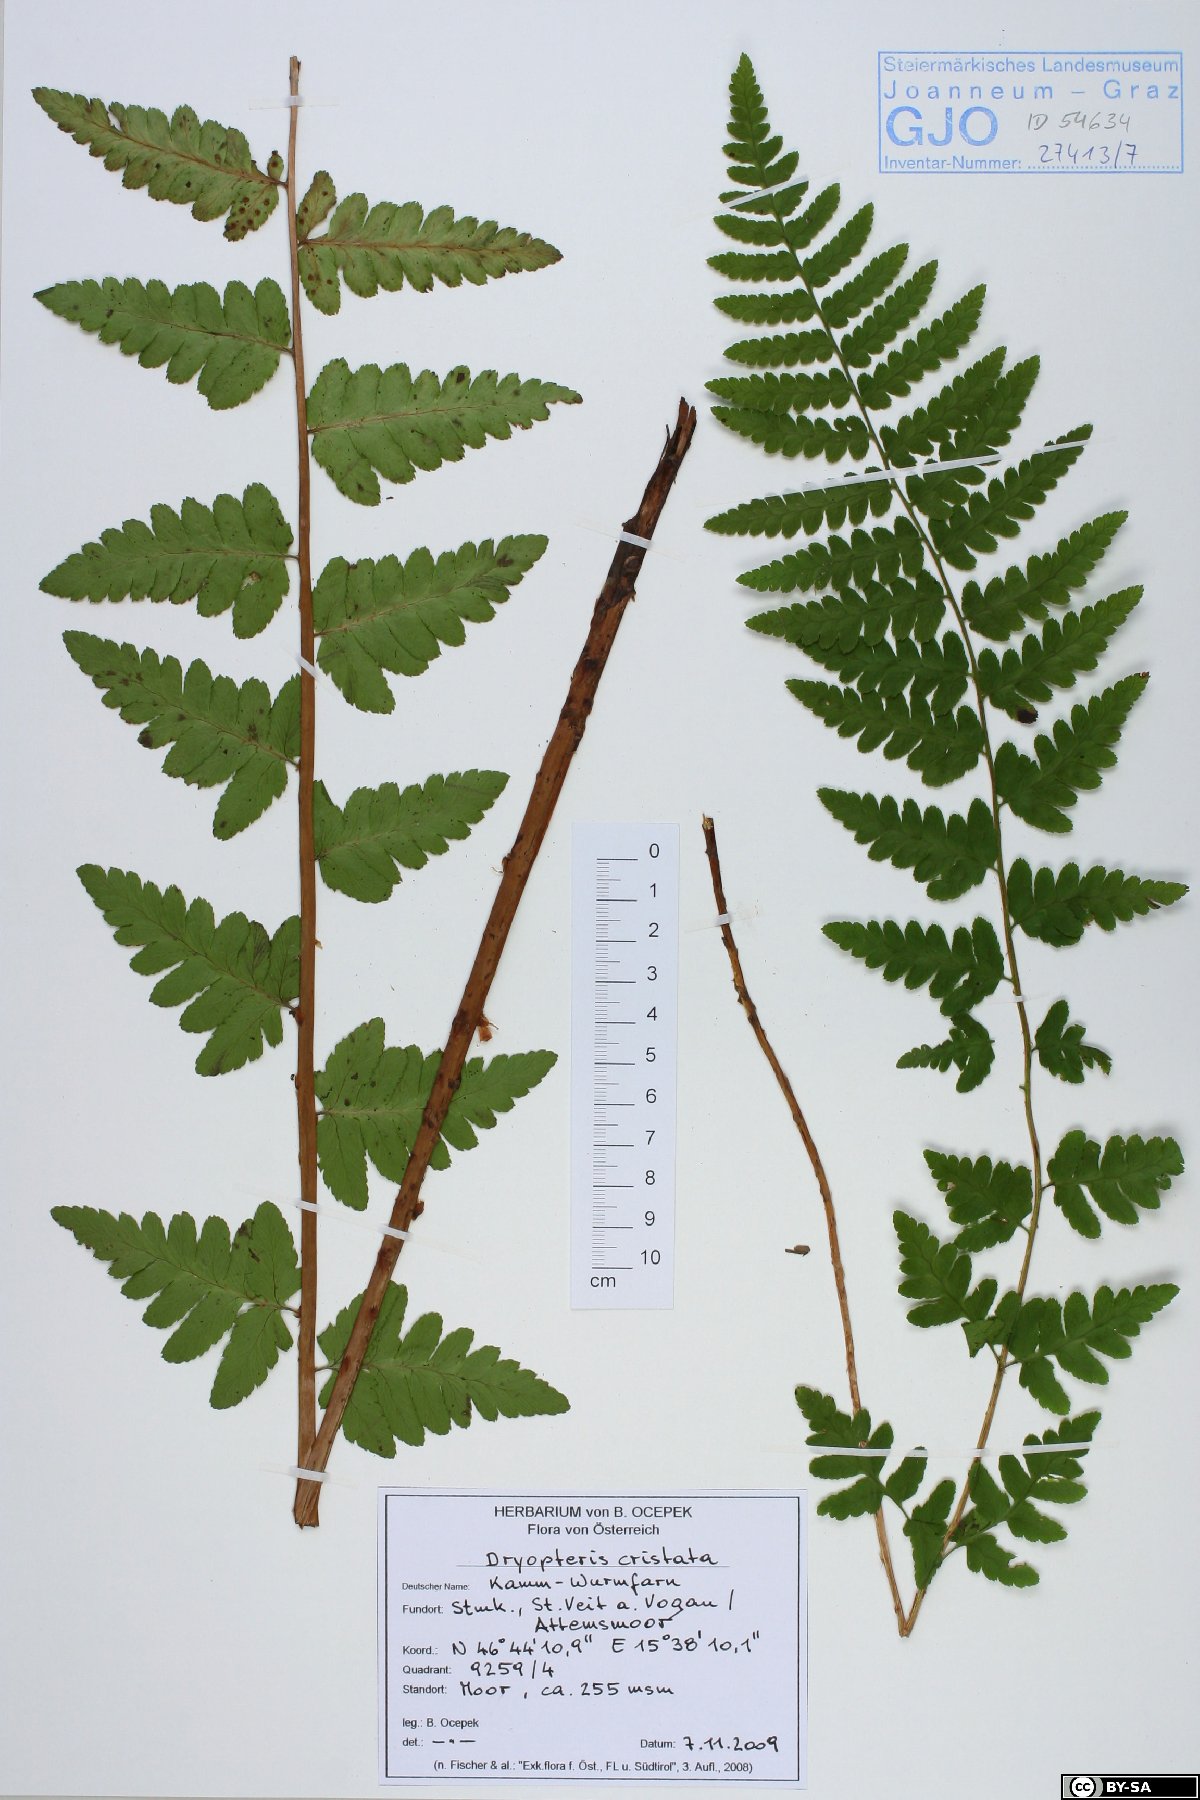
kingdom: Plantae
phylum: Tracheophyta
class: Polypodiopsida
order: Polypodiales
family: Dryopteridaceae
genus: Dryopteris
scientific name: Dryopteris cristata
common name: Crested wood fern
